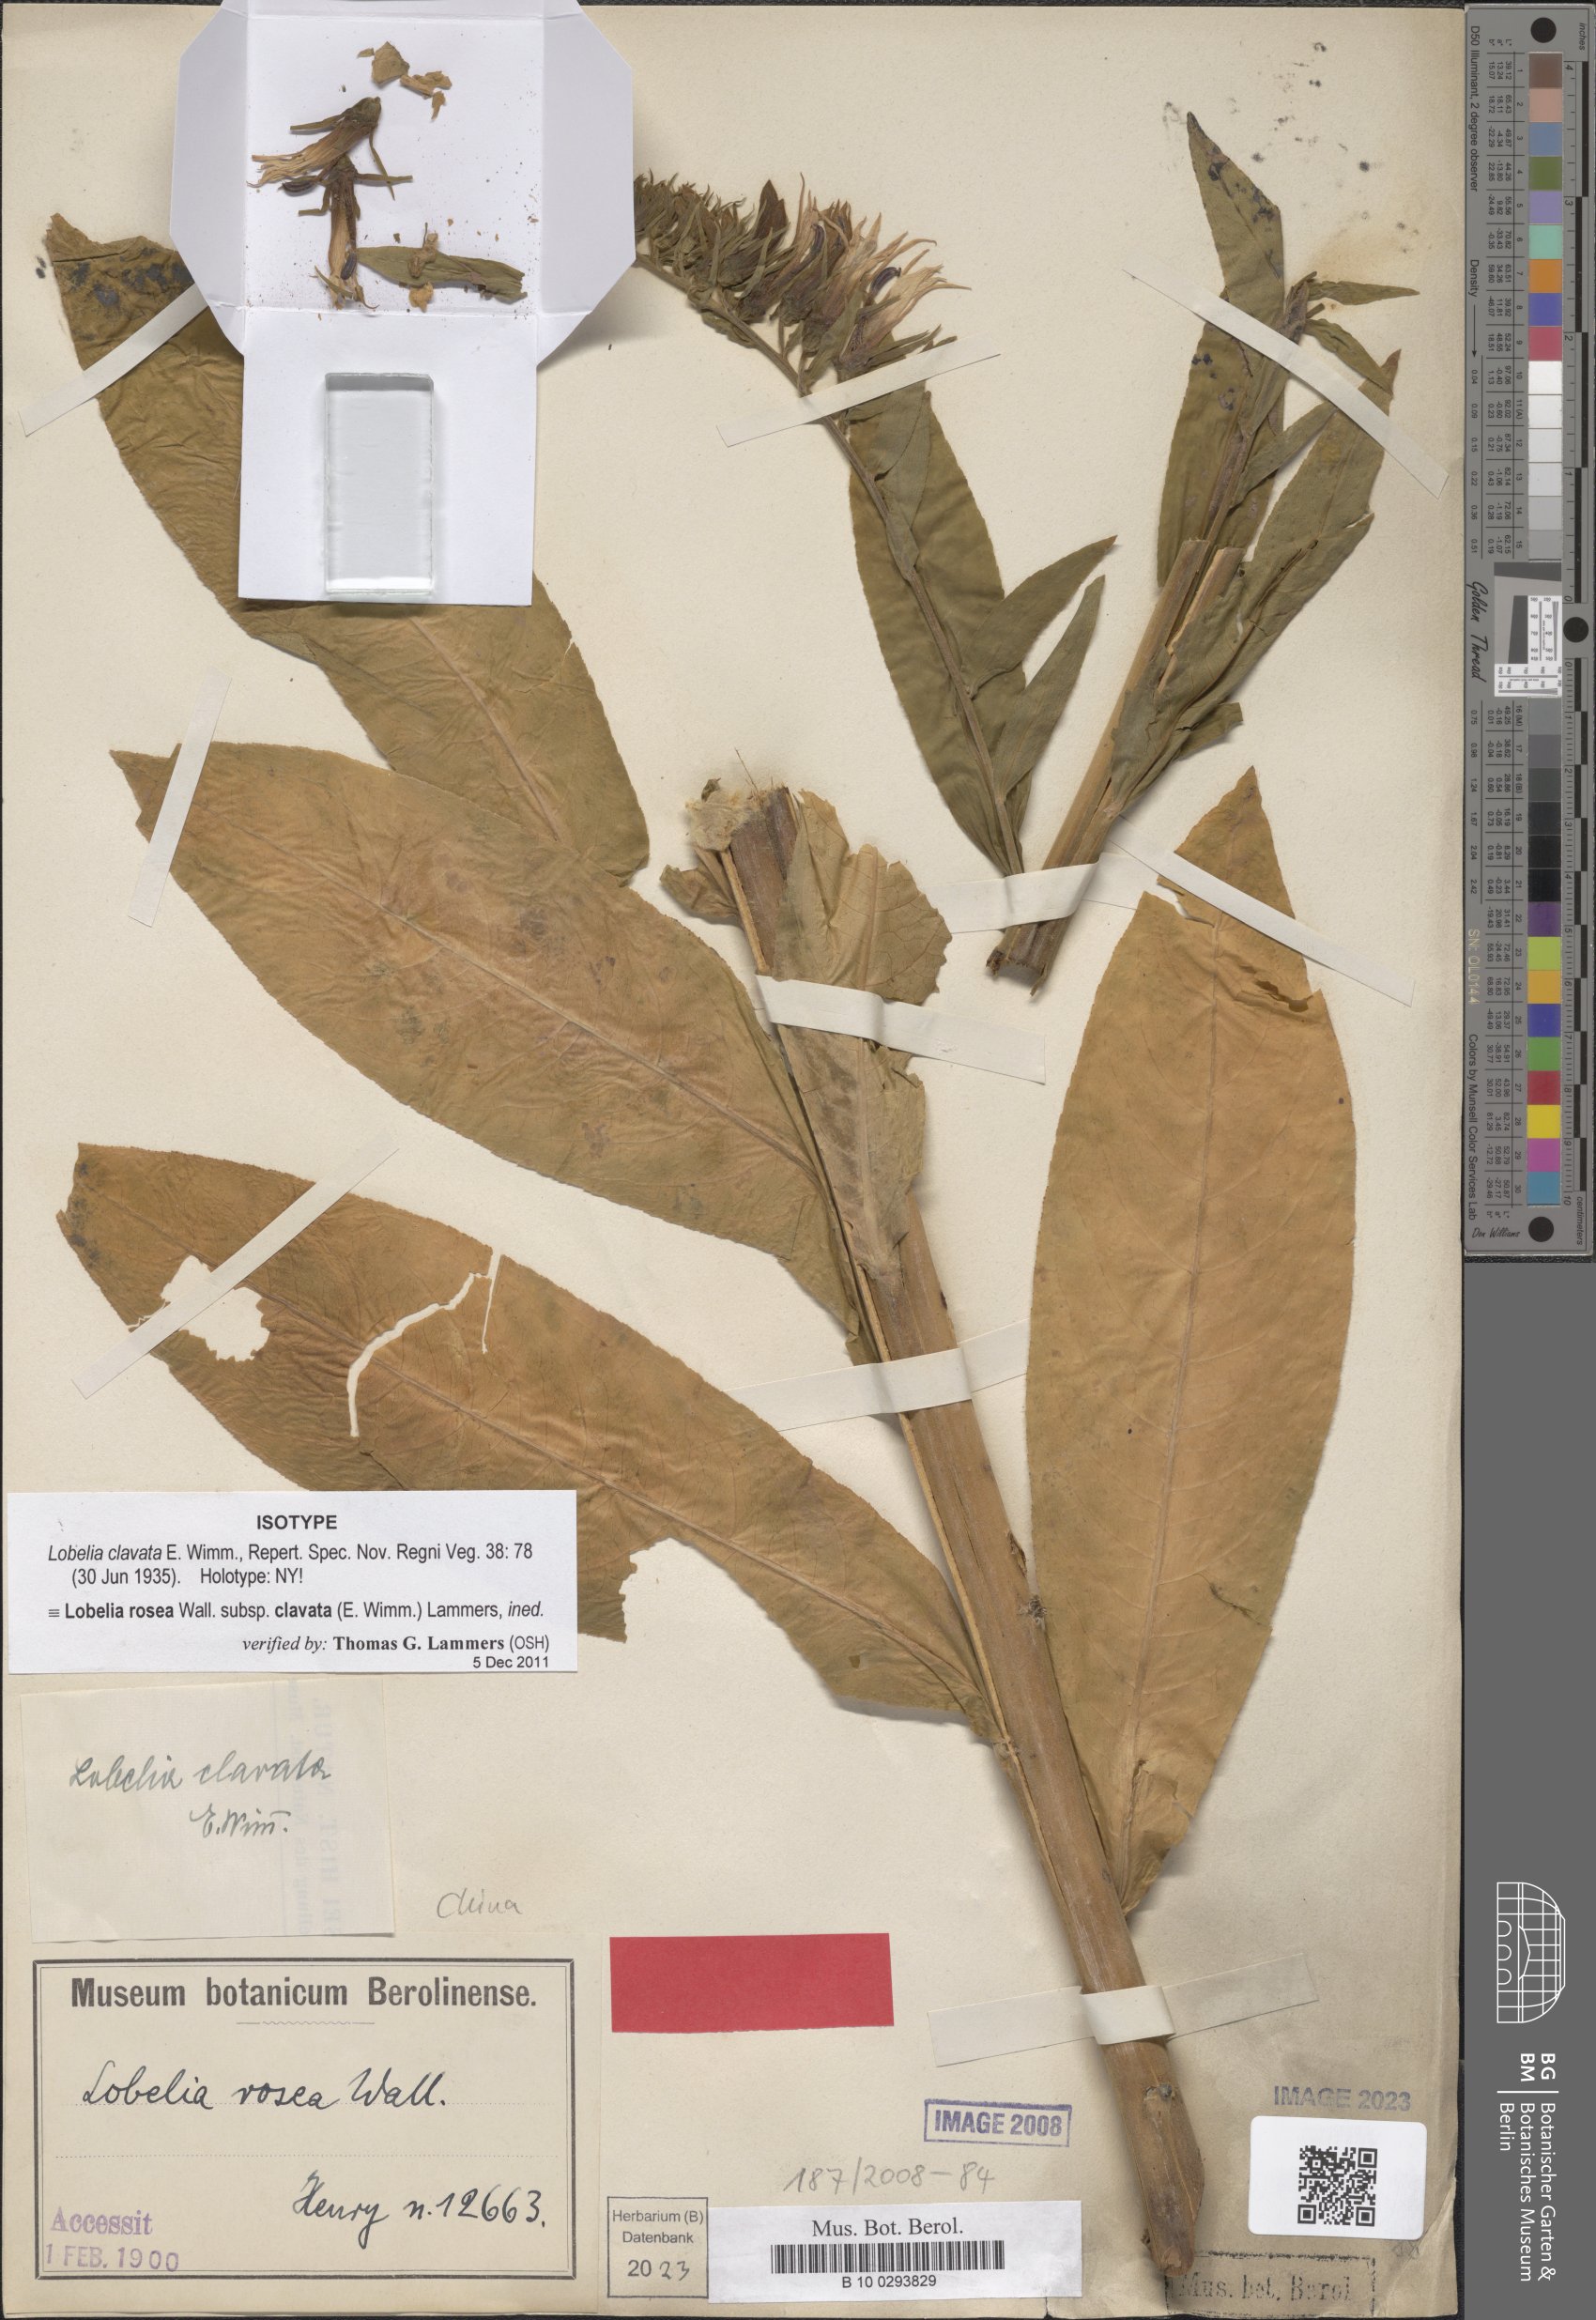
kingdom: Plantae
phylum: Tracheophyta
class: Magnoliopsida
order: Asterales
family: Campanulaceae
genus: Lobelia
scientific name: Lobelia clavata
